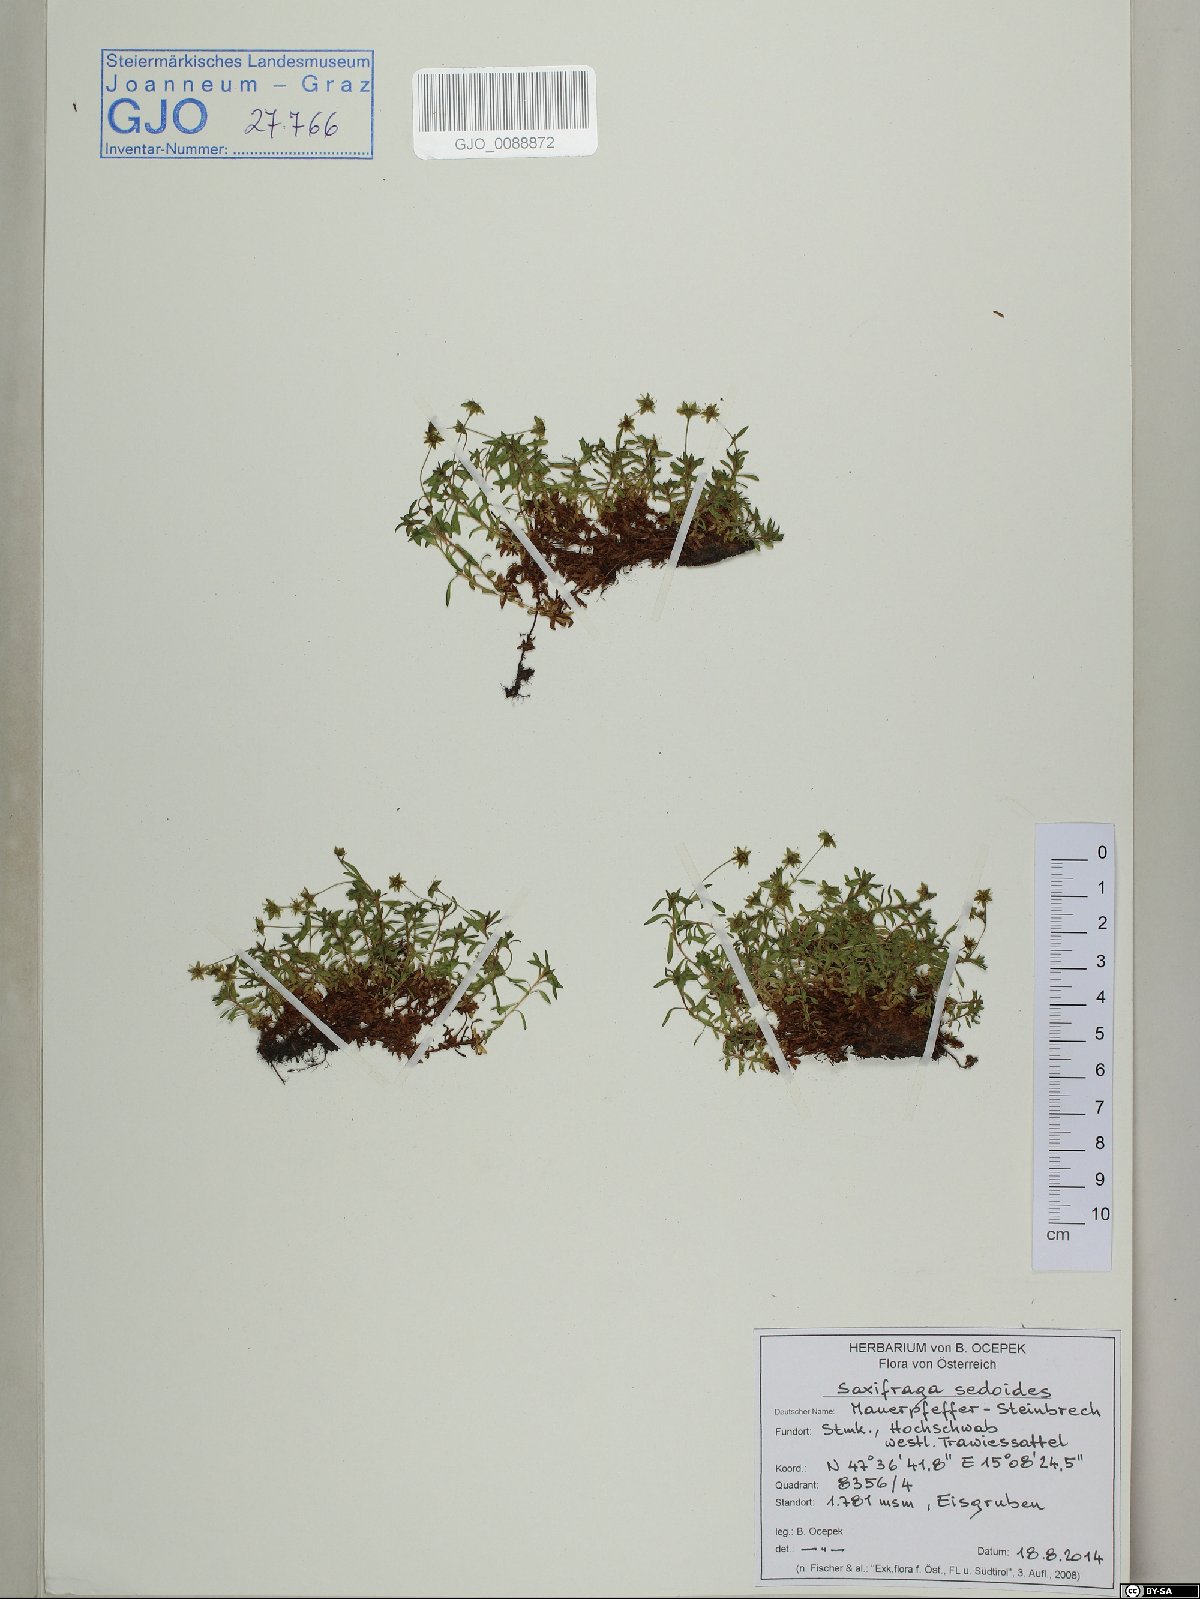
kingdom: Plantae
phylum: Tracheophyta
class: Magnoliopsida
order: Saxifragales
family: Saxifragaceae
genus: Saxifraga
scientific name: Saxifraga sedoides
